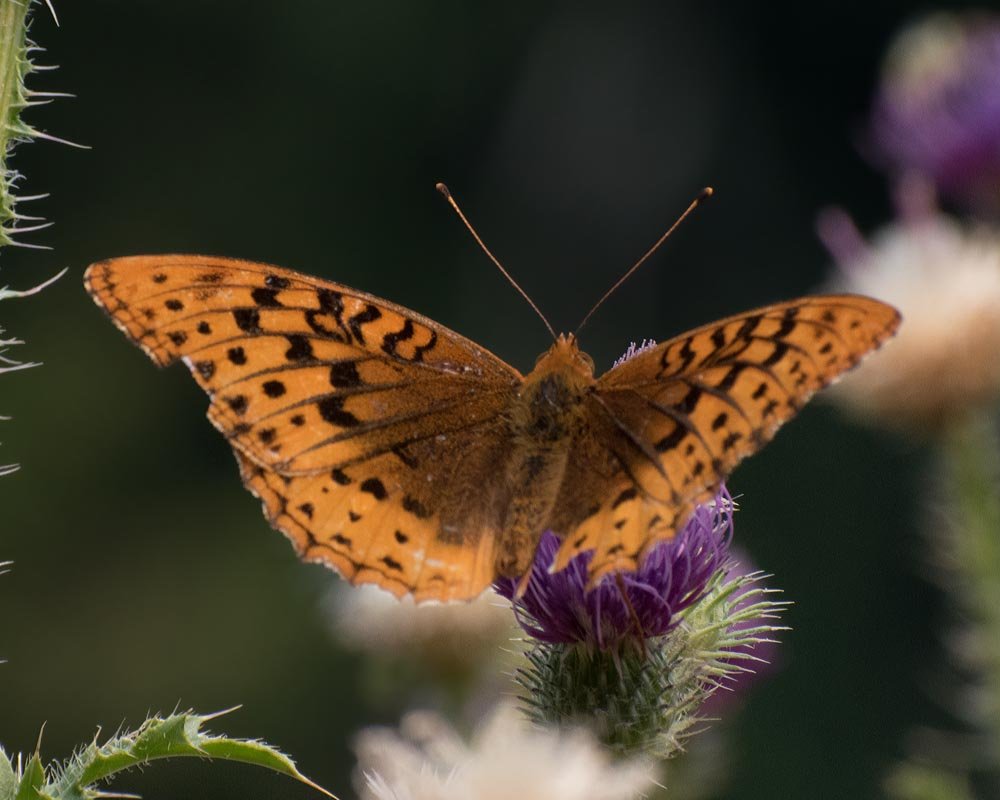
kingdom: Animalia
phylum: Arthropoda
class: Insecta
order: Lepidoptera
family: Nymphalidae
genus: Speyeria
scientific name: Speyeria cybele
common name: Great Spangled Fritillary
